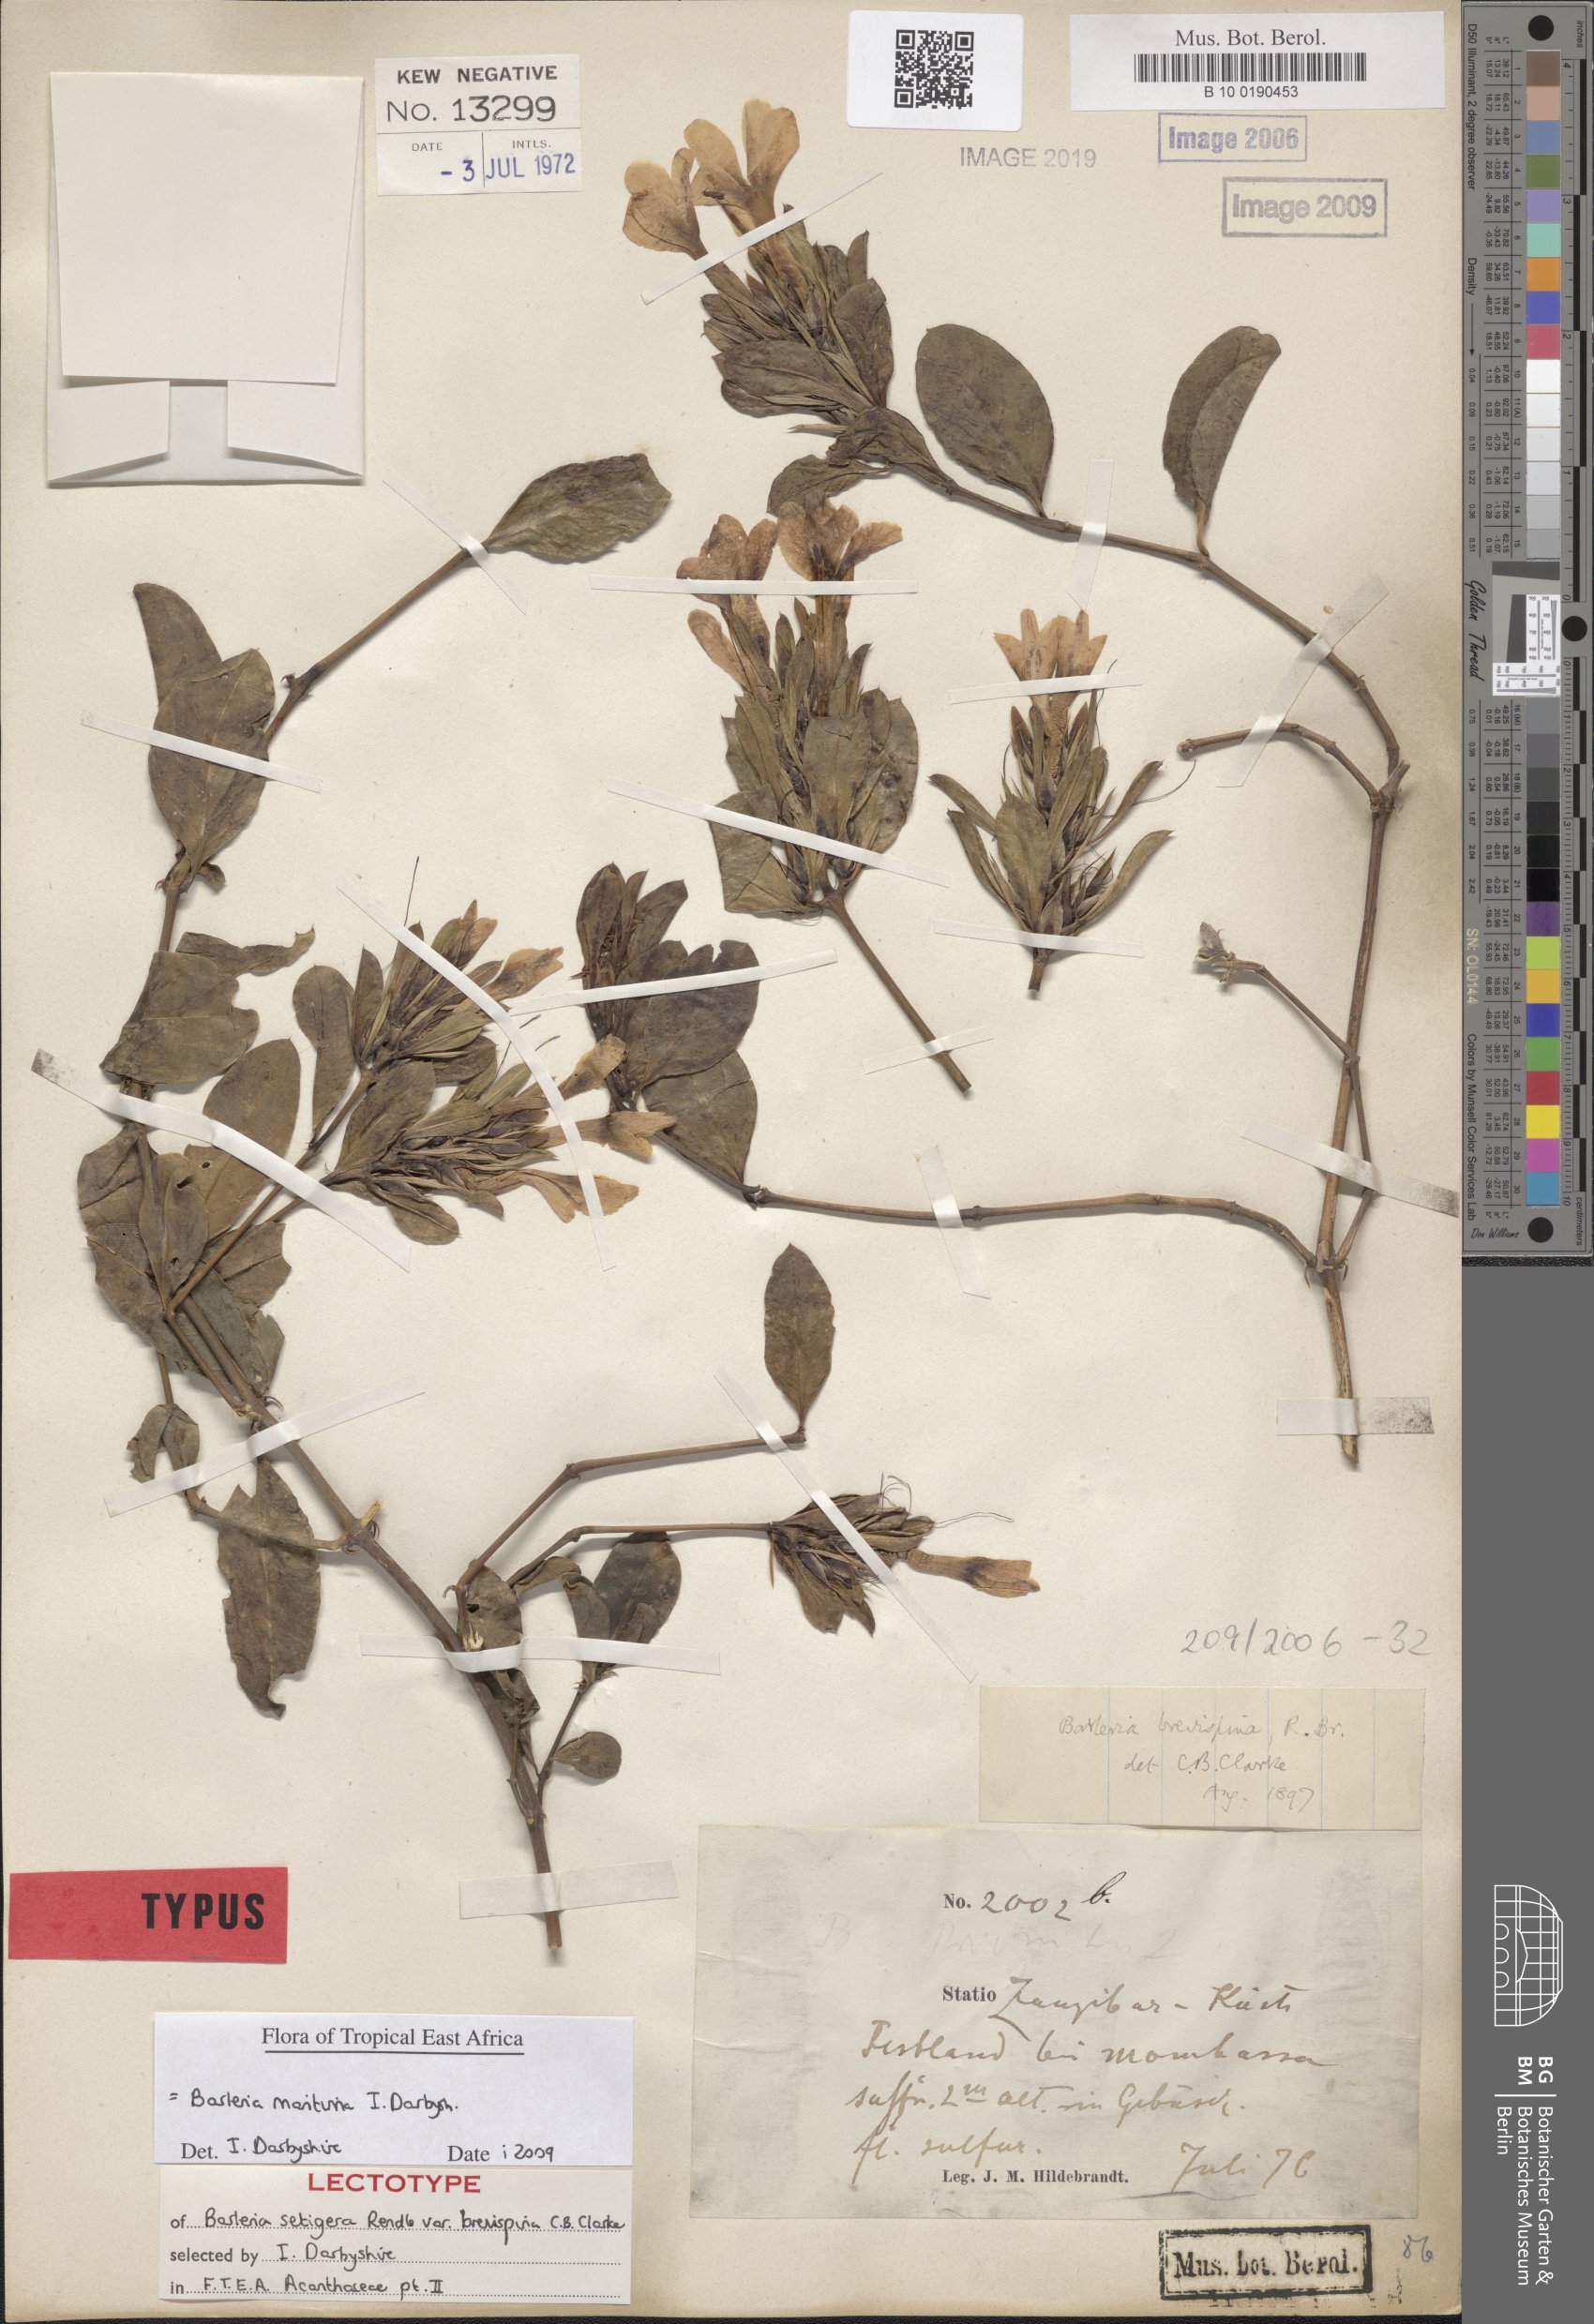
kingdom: Plantae
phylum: Tracheophyta
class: Magnoliopsida
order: Lamiales
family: Acanthaceae
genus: Barleria
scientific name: Barleria maritima
